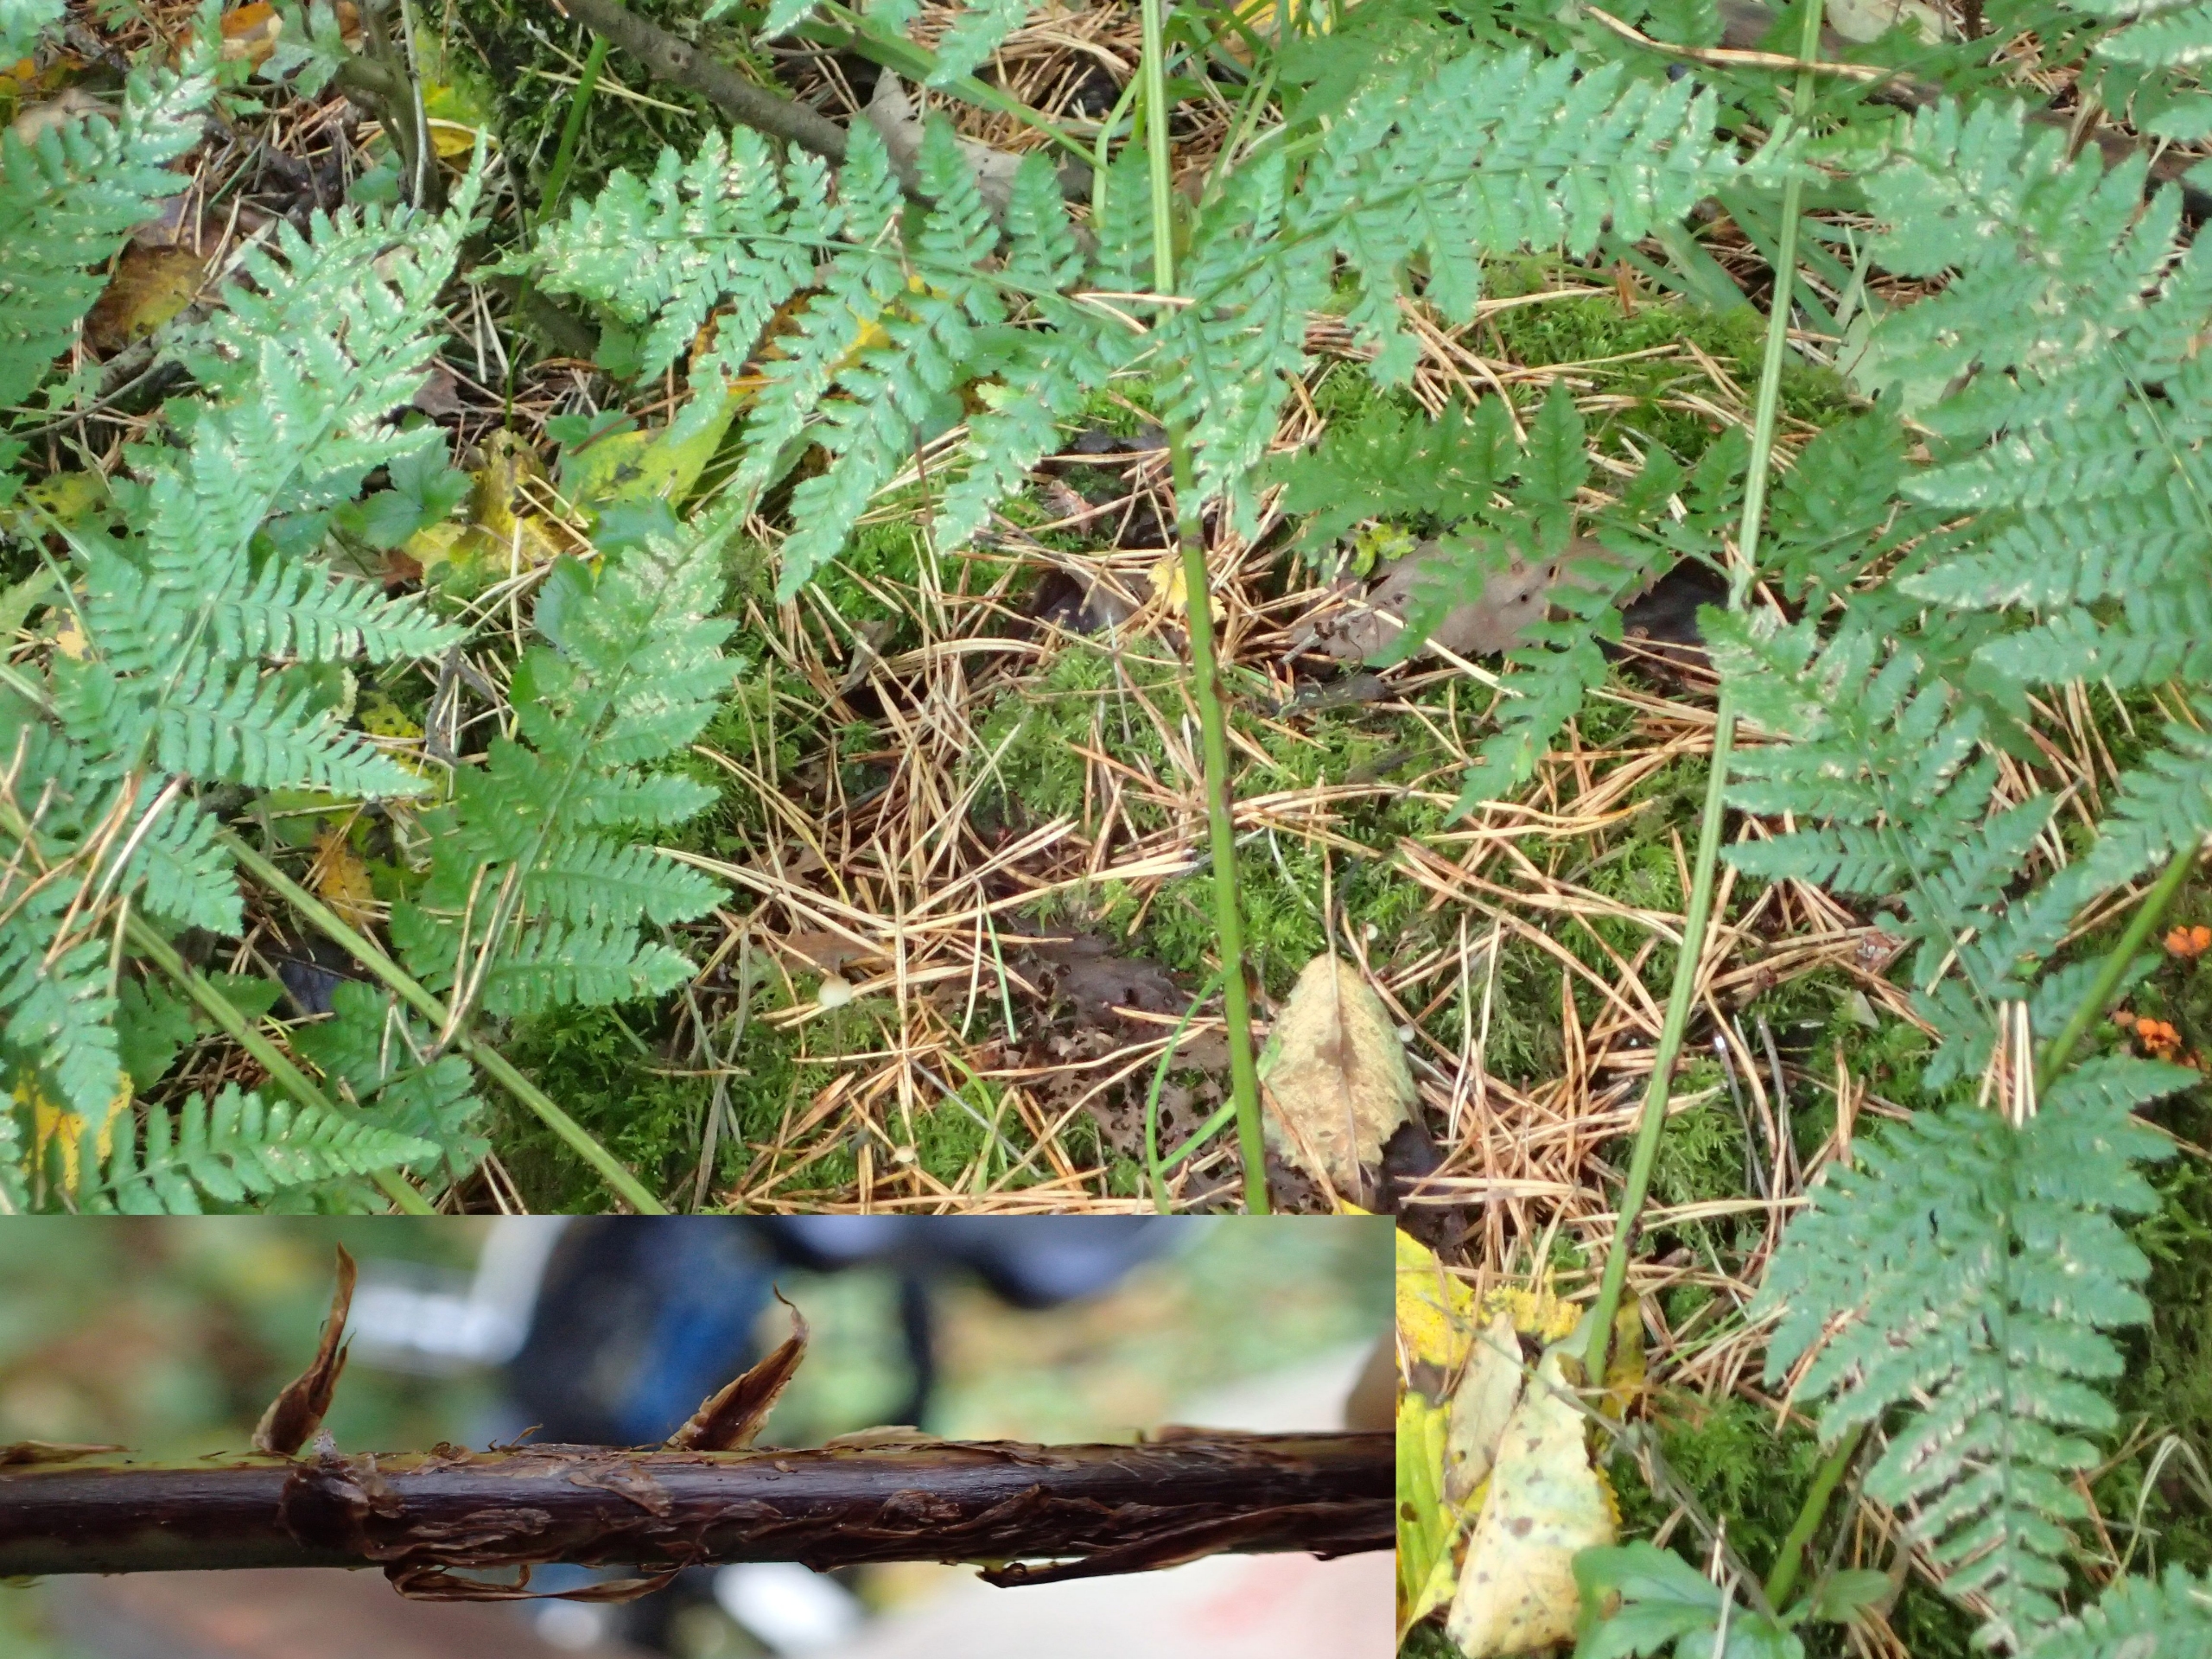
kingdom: Plantae
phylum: Tracheophyta
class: Polypodiopsida
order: Polypodiales
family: Dryopteridaceae
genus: Dryopteris
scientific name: Dryopteris dilatata
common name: Bredbladet mangeløv
